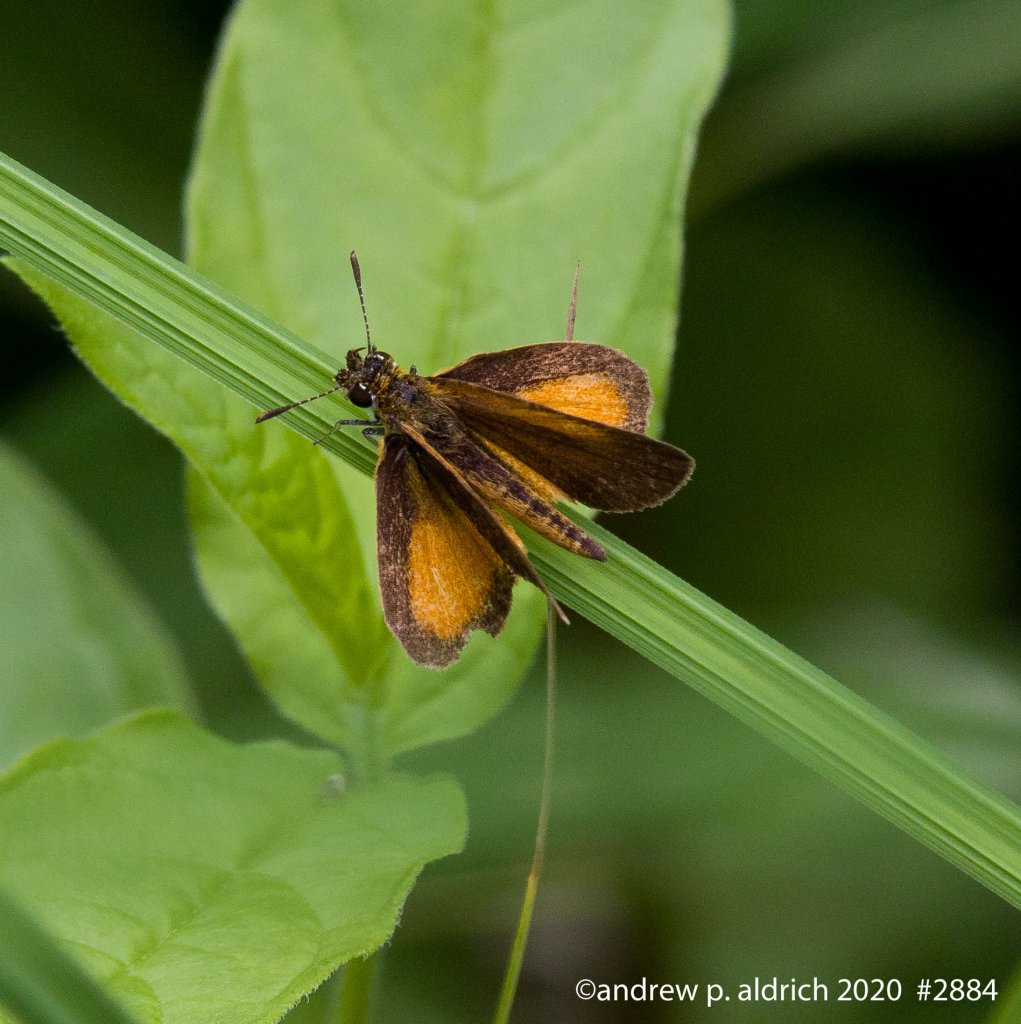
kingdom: Animalia
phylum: Arthropoda
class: Insecta
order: Lepidoptera
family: Hesperiidae
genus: Ancyloxypha
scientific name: Ancyloxypha numitor
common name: Least Skipper
